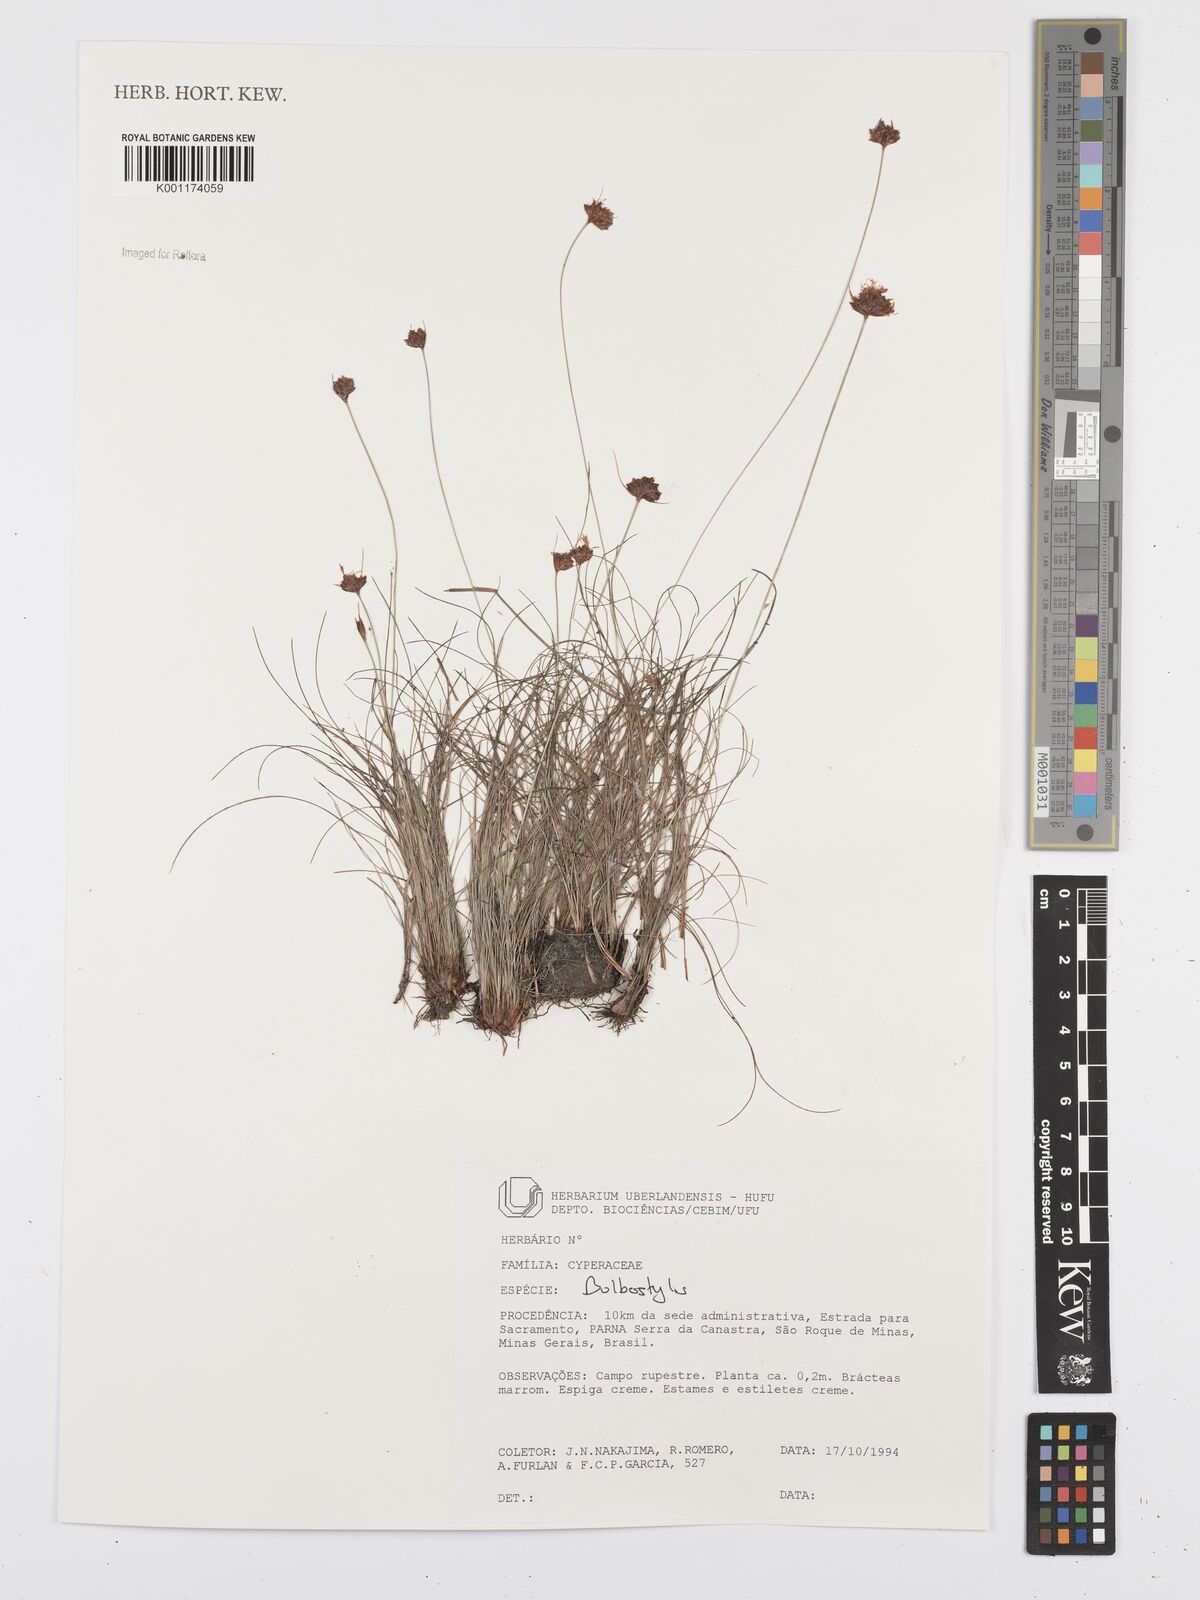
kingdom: Plantae
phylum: Tracheophyta
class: Liliopsida
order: Poales
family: Cyperaceae
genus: Bulbostylis
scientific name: Bulbostylis
